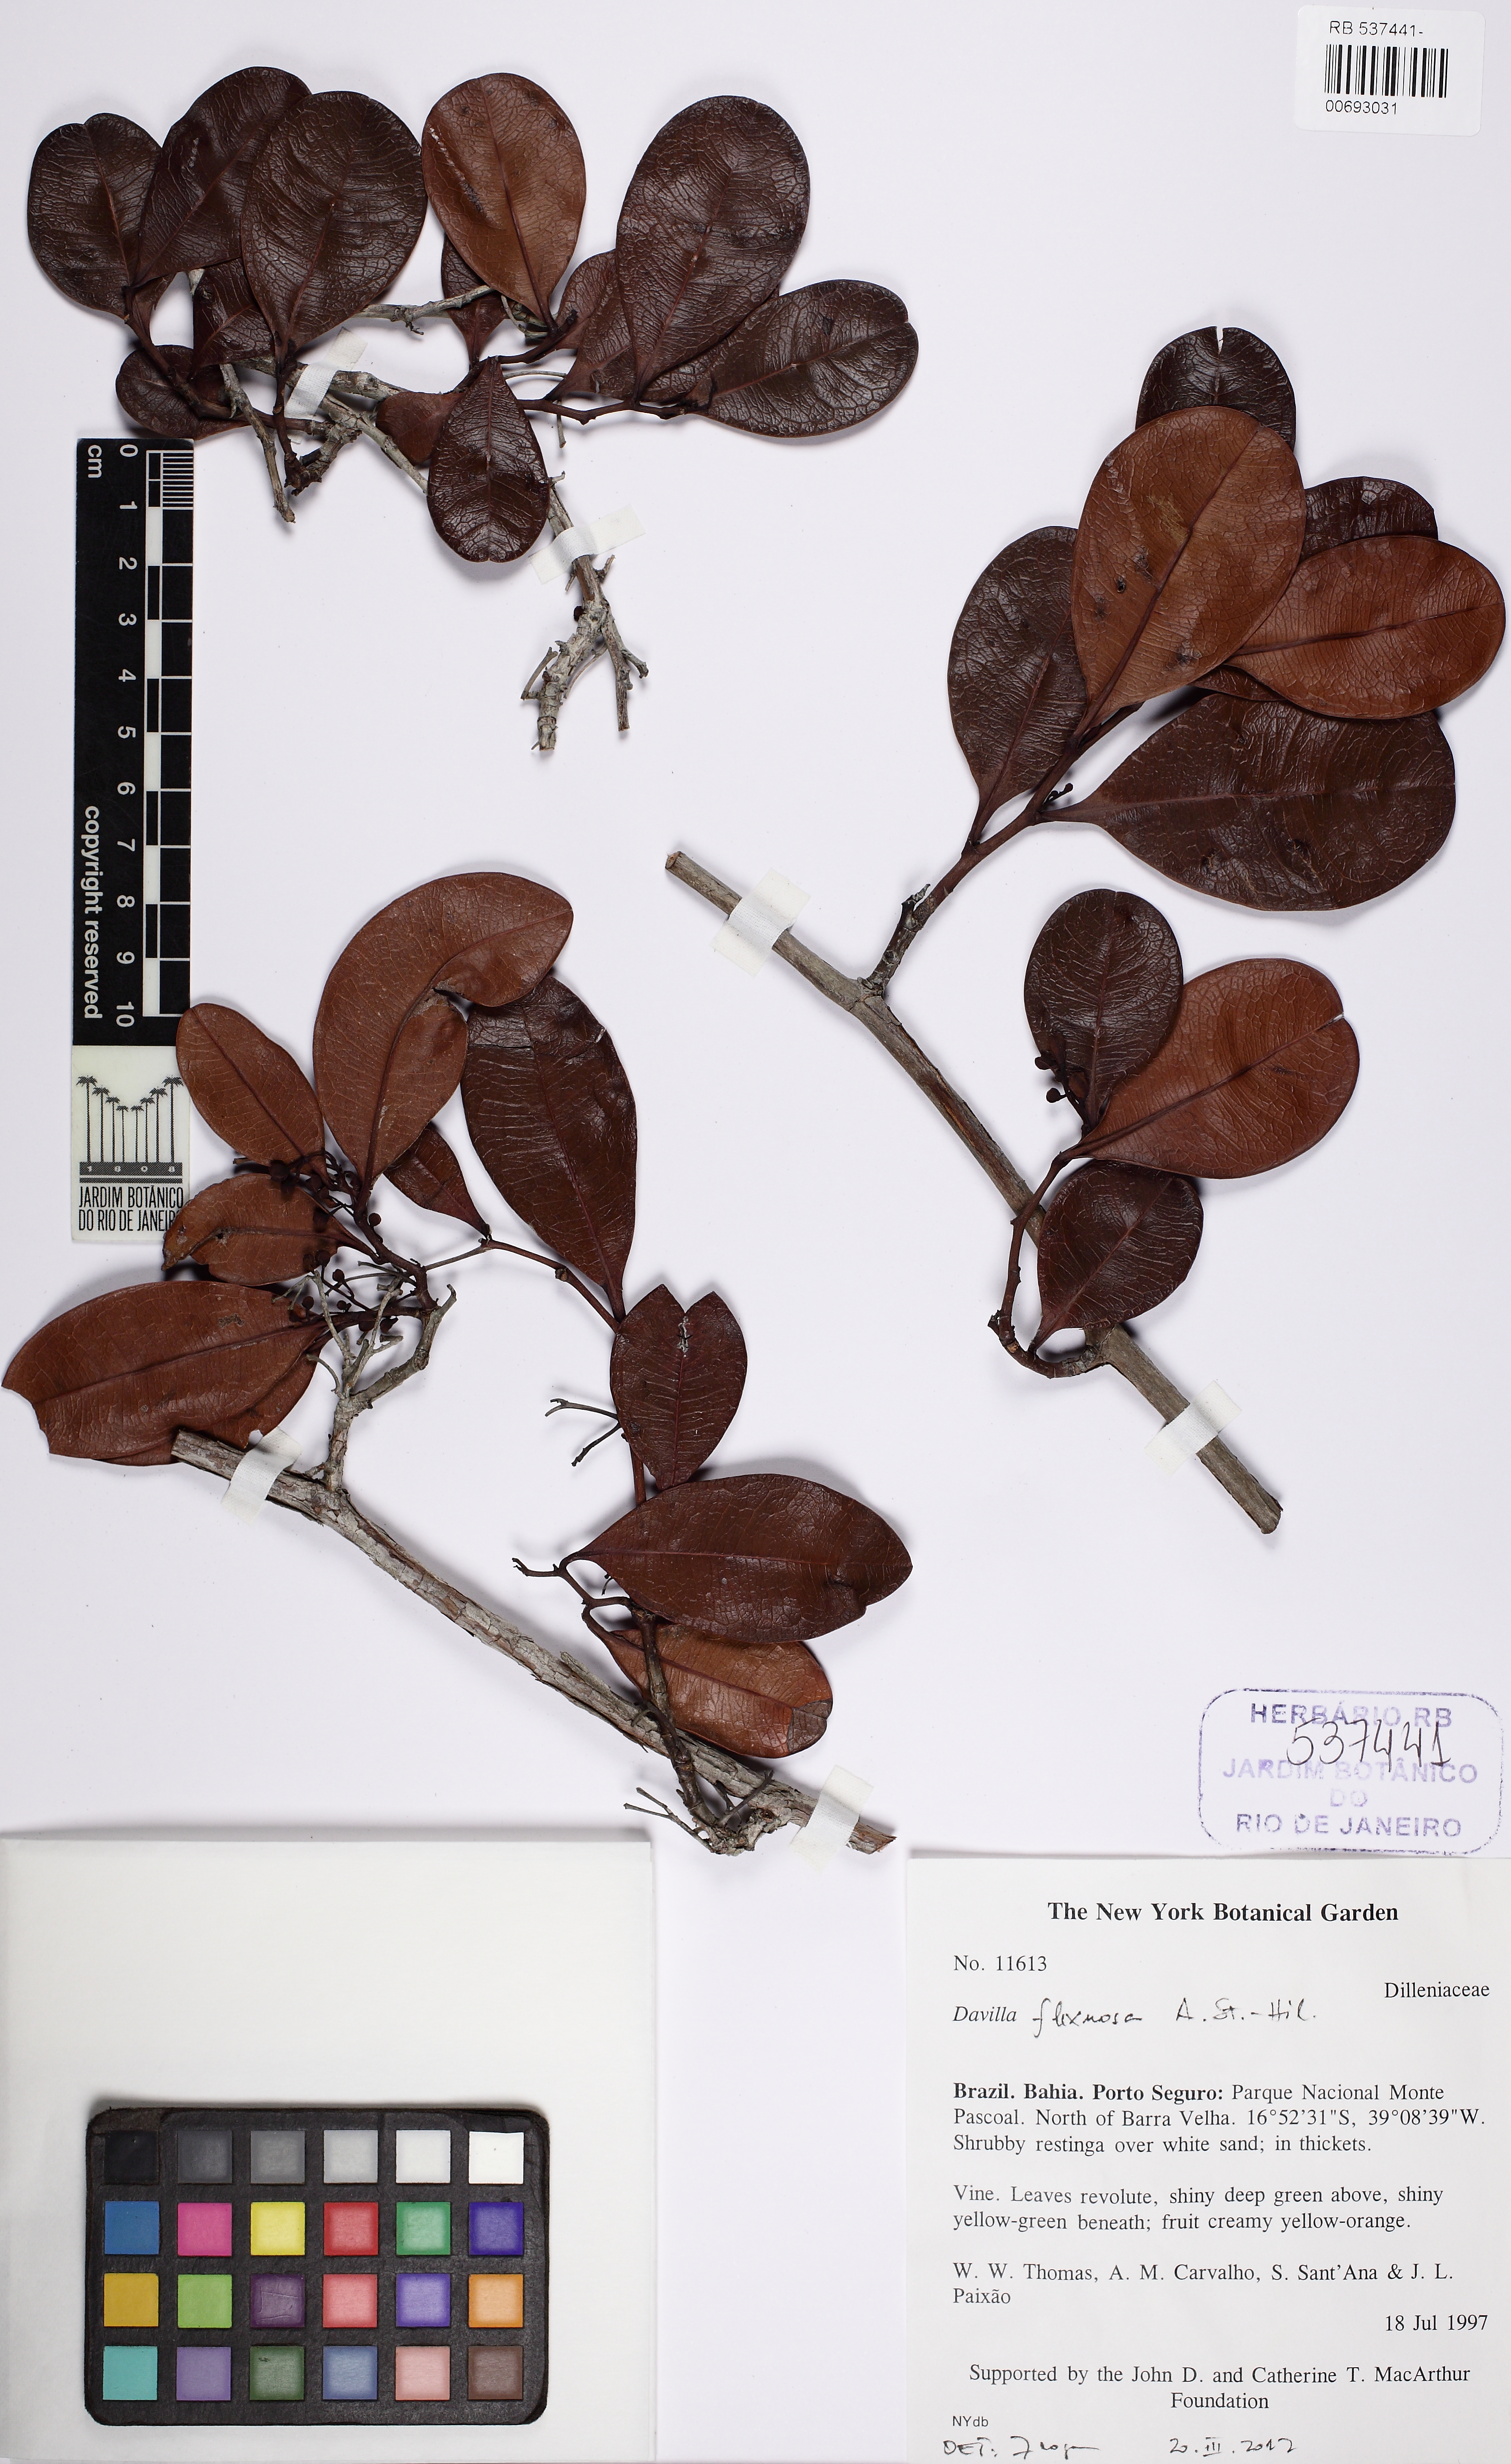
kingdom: Plantae
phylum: Tracheophyta
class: Magnoliopsida
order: Dilleniales
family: Dilleniaceae
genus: Davilla
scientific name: Davilla flexuosa
